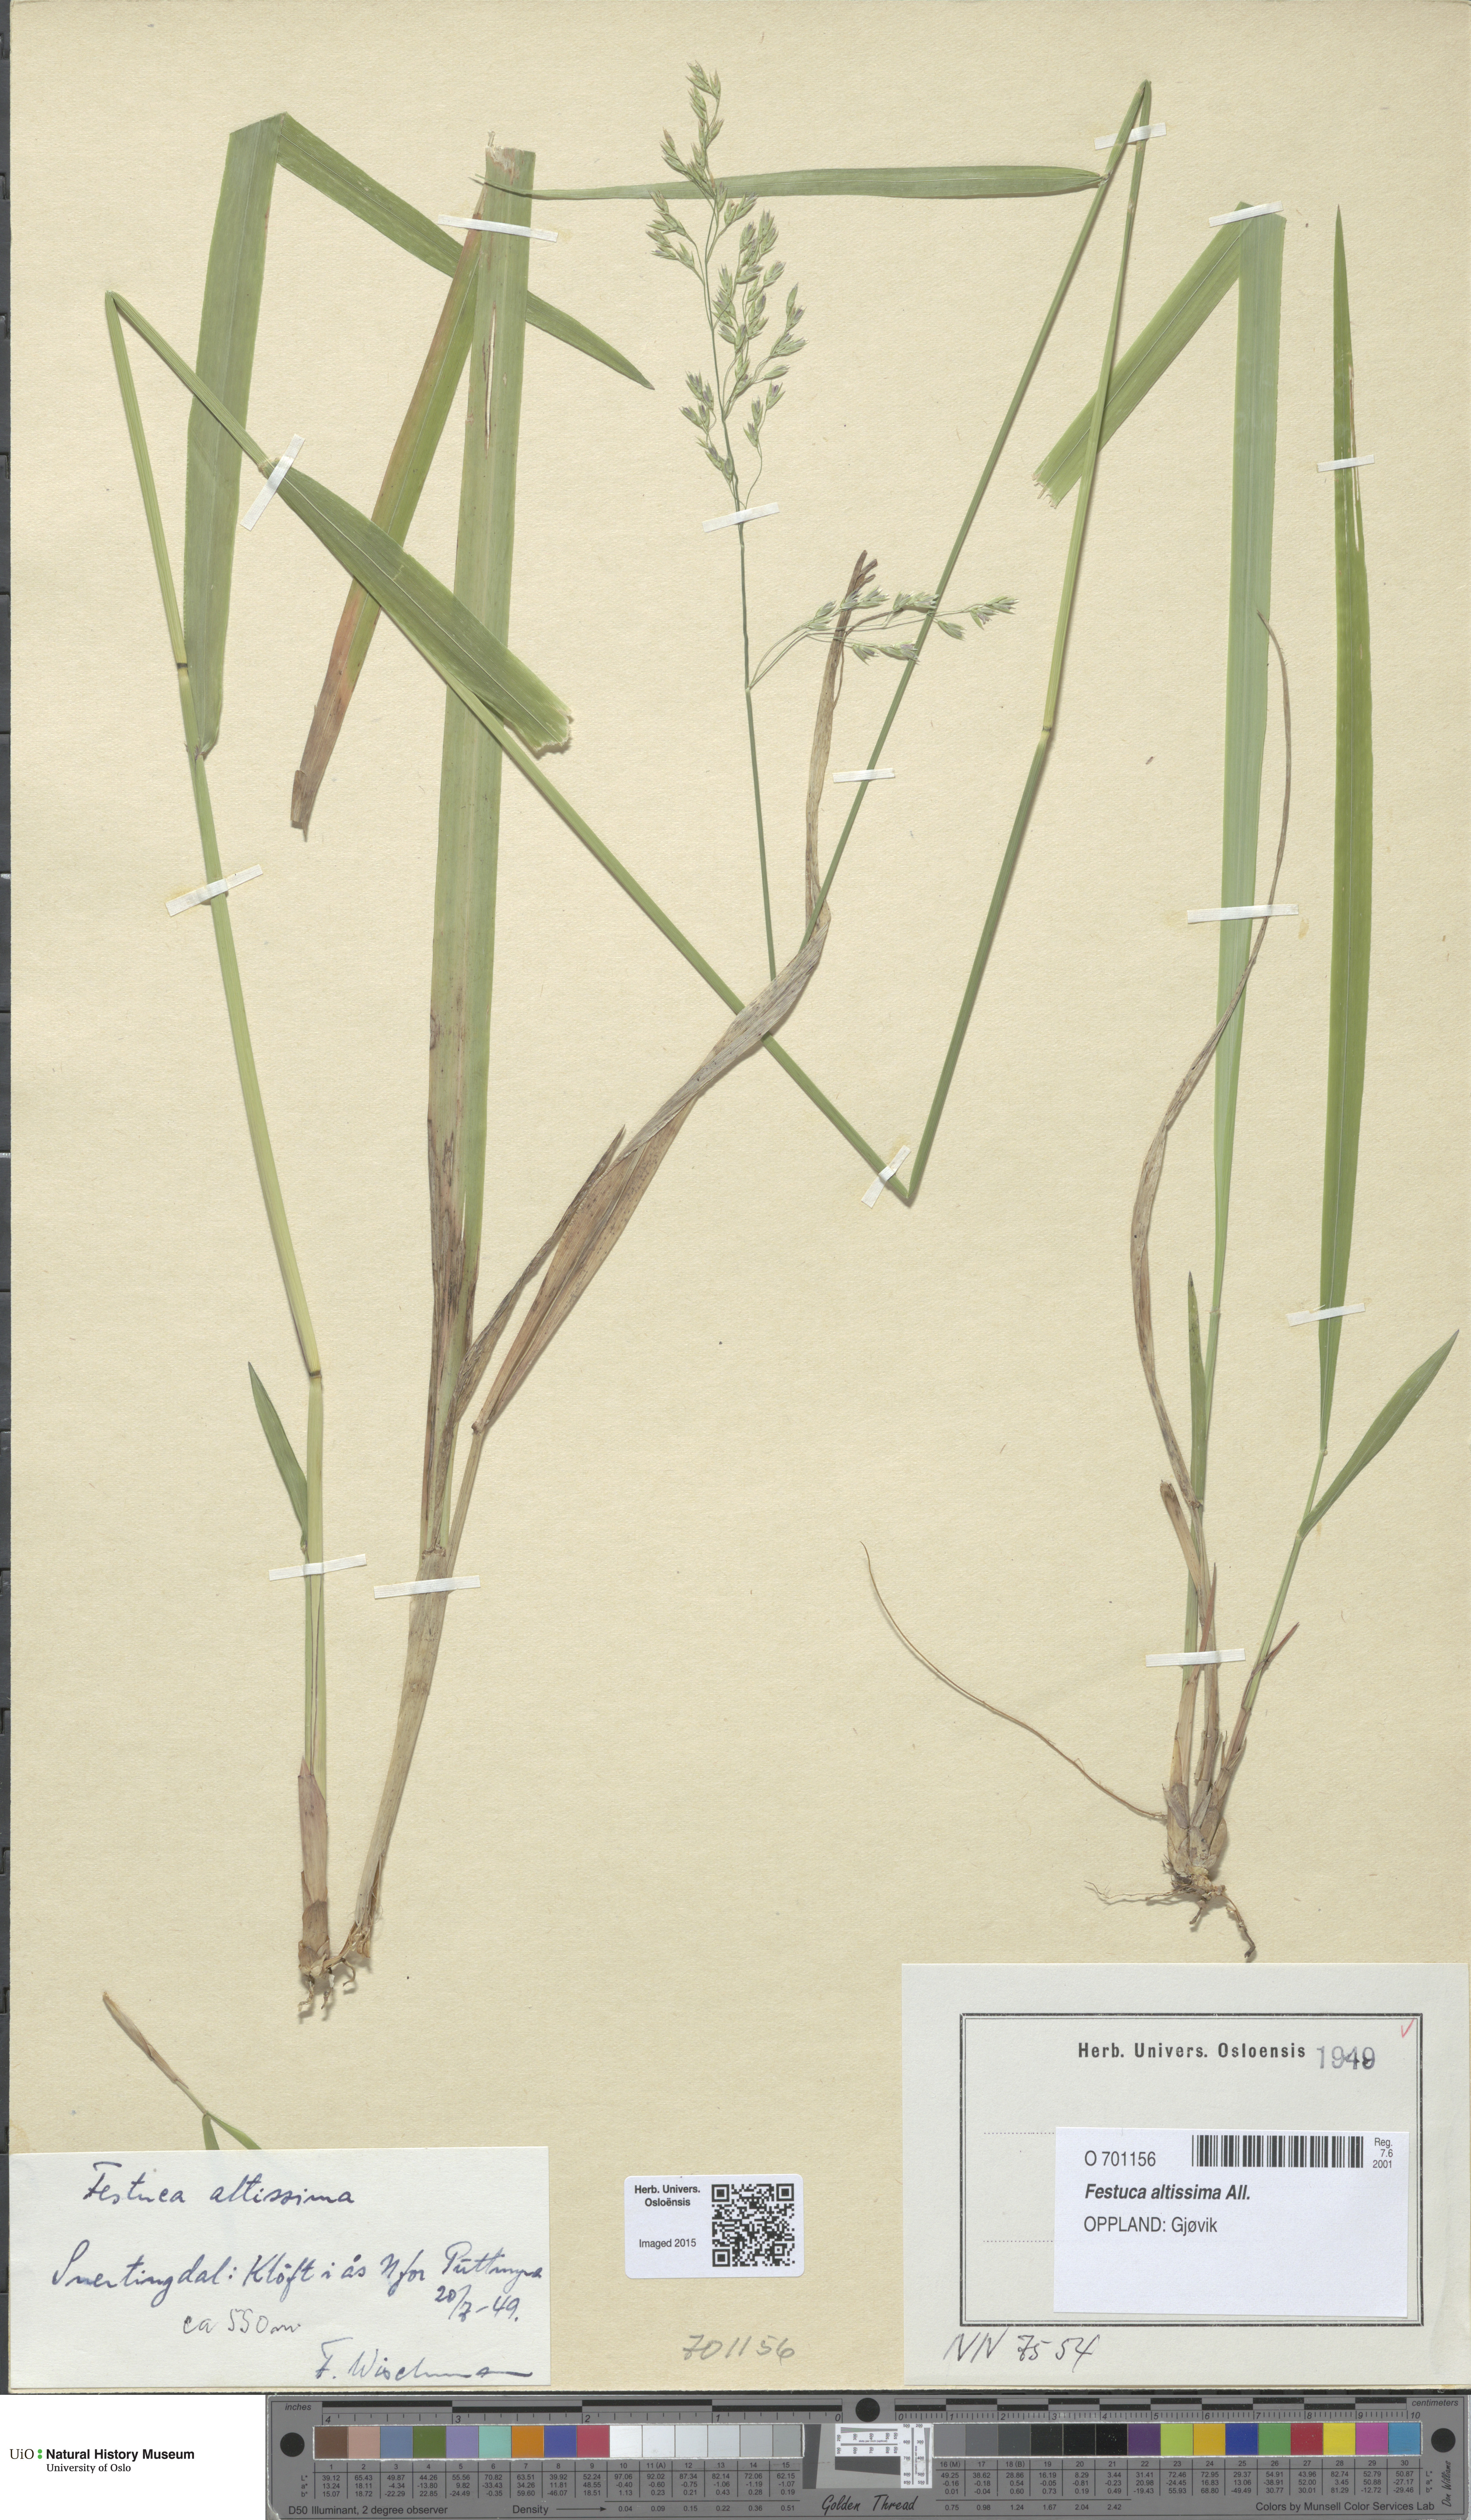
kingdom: Plantae
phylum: Tracheophyta
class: Liliopsida
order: Poales
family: Poaceae
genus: Festuca
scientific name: Festuca altissima
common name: Wood fescue
